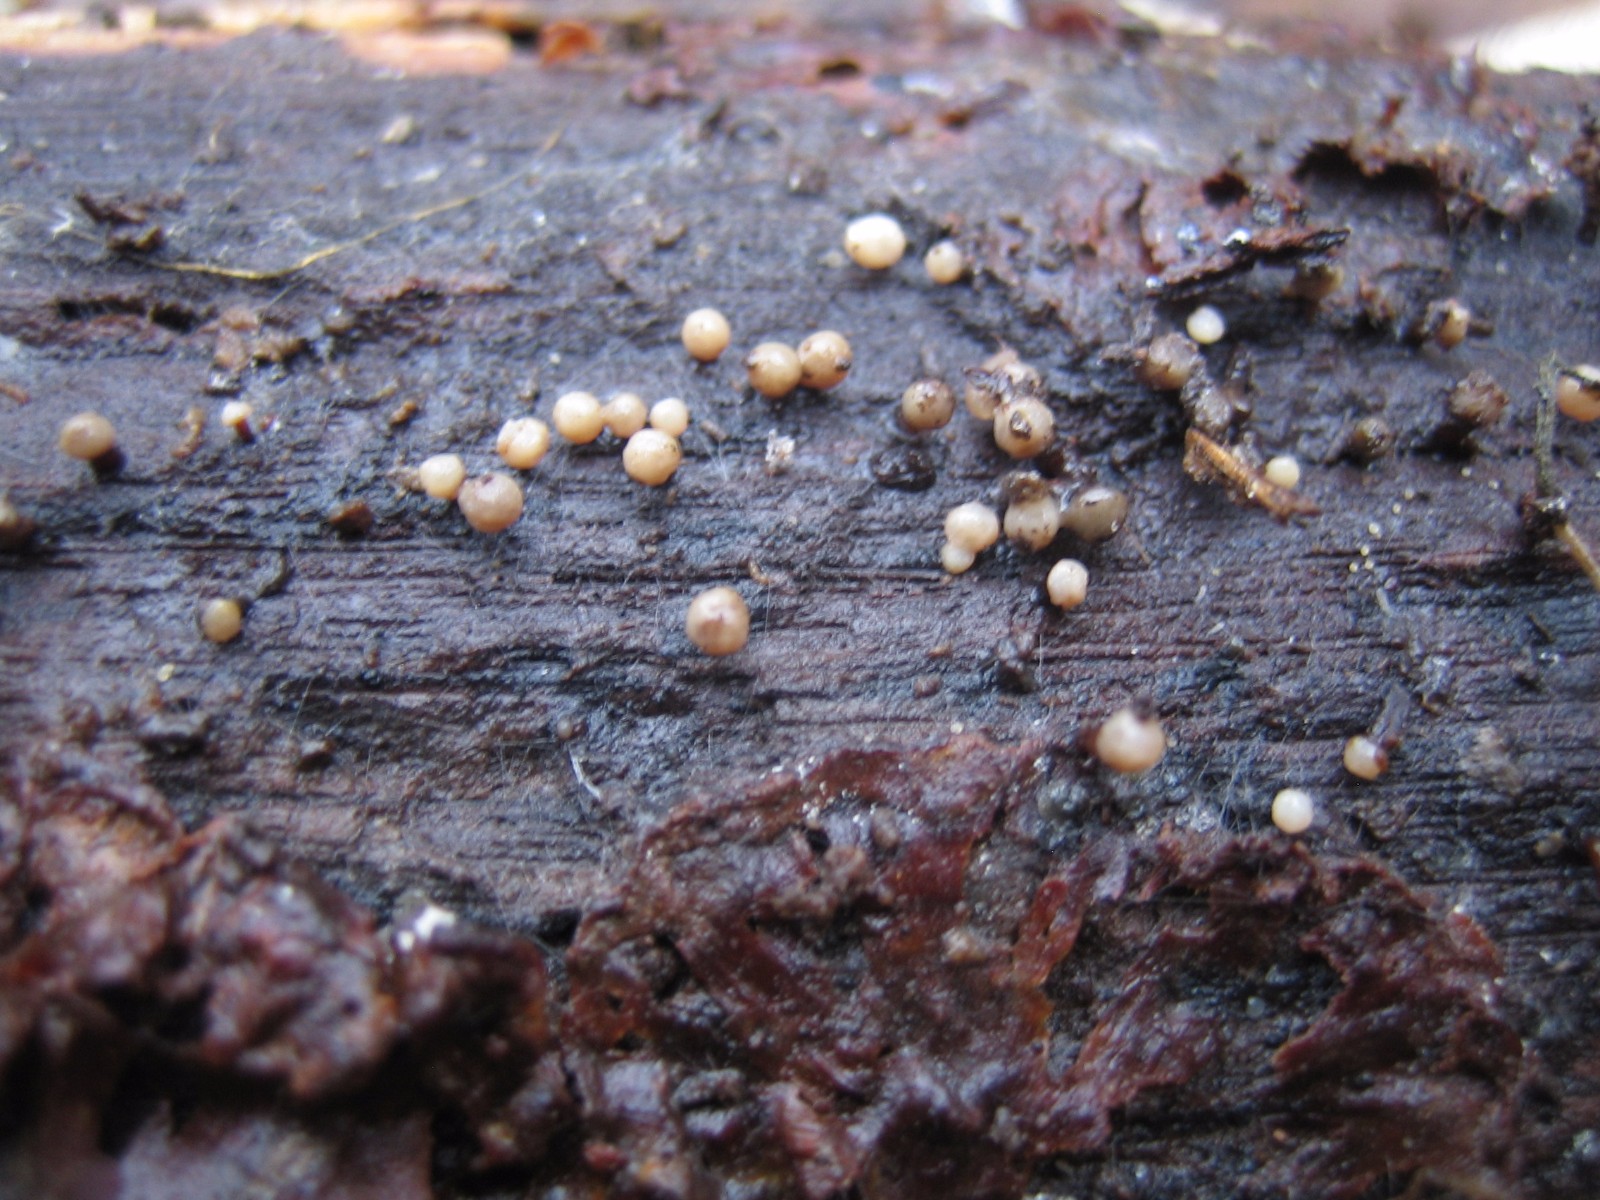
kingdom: Fungi
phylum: Ascomycota
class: Leotiomycetes
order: Helotiales
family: Gelatinodiscaceae
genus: Ascocoryne
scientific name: Ascocoryne albida
